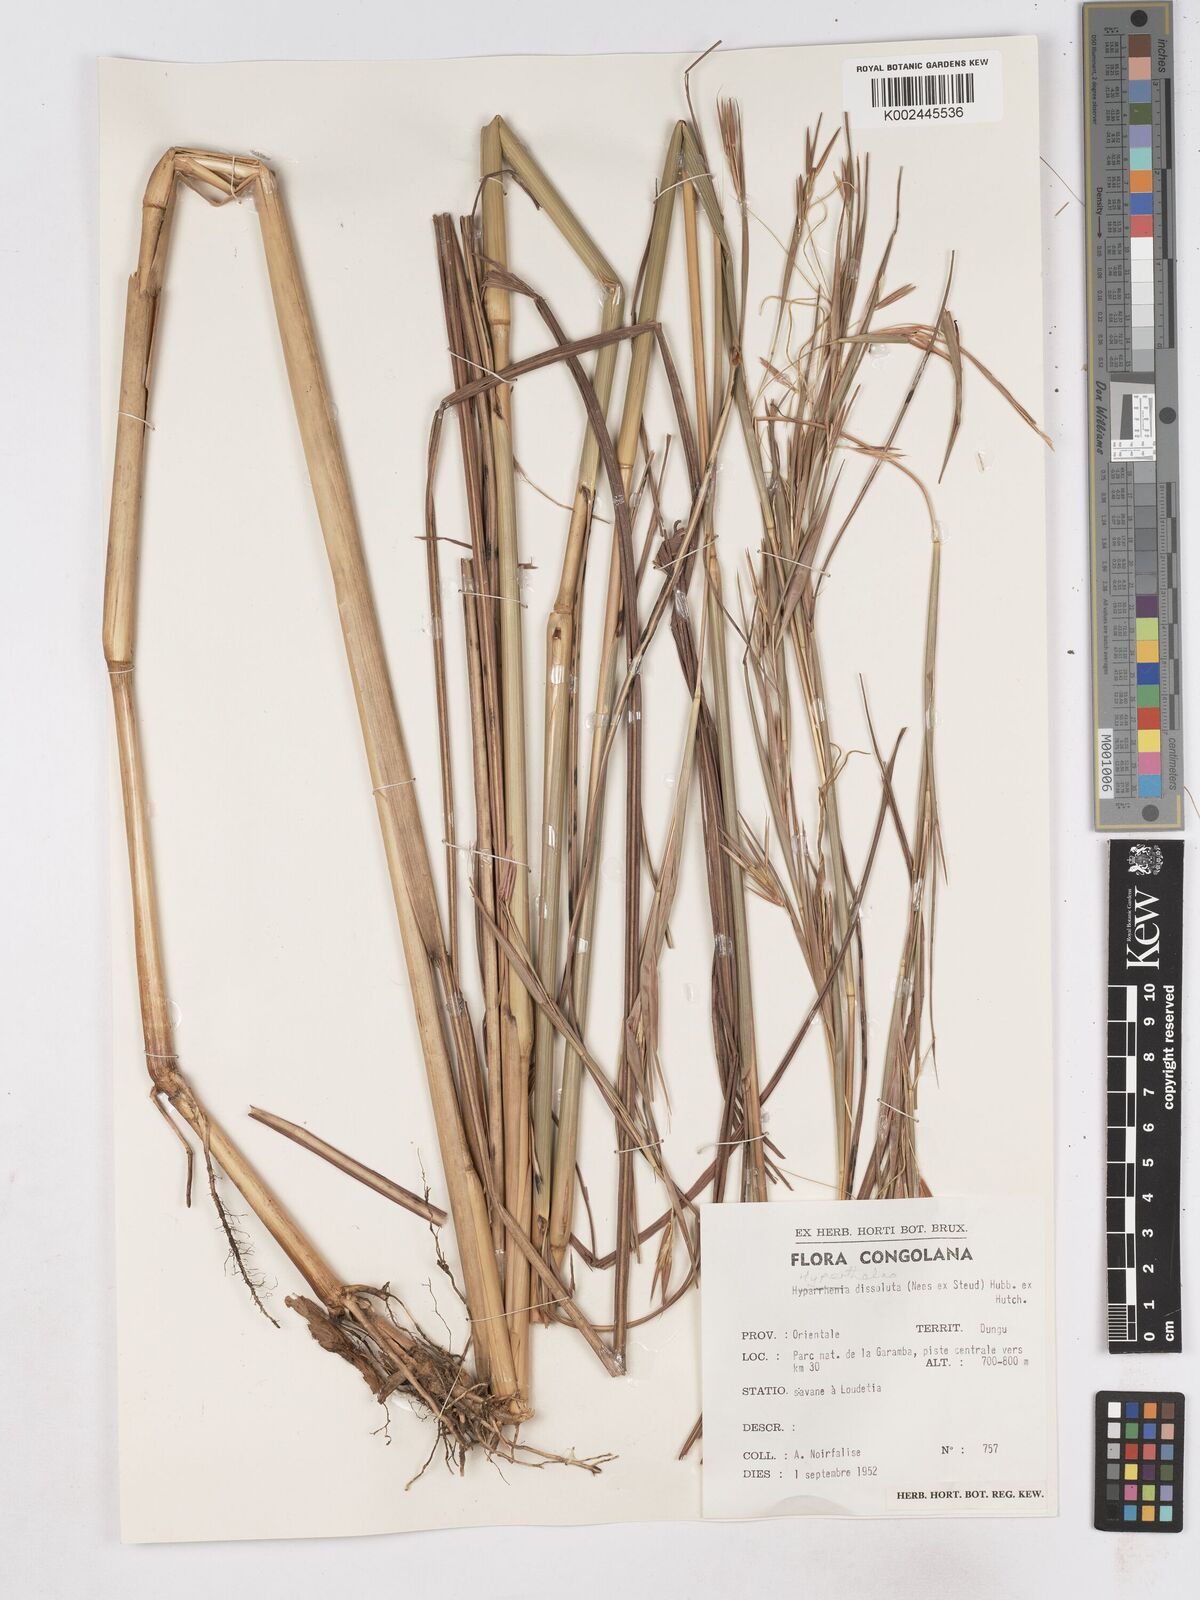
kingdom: Plantae
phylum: Tracheophyta
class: Liliopsida
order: Poales
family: Poaceae
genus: Hyperthelia
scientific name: Hyperthelia dissoluta
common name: Yellow thatching grass
